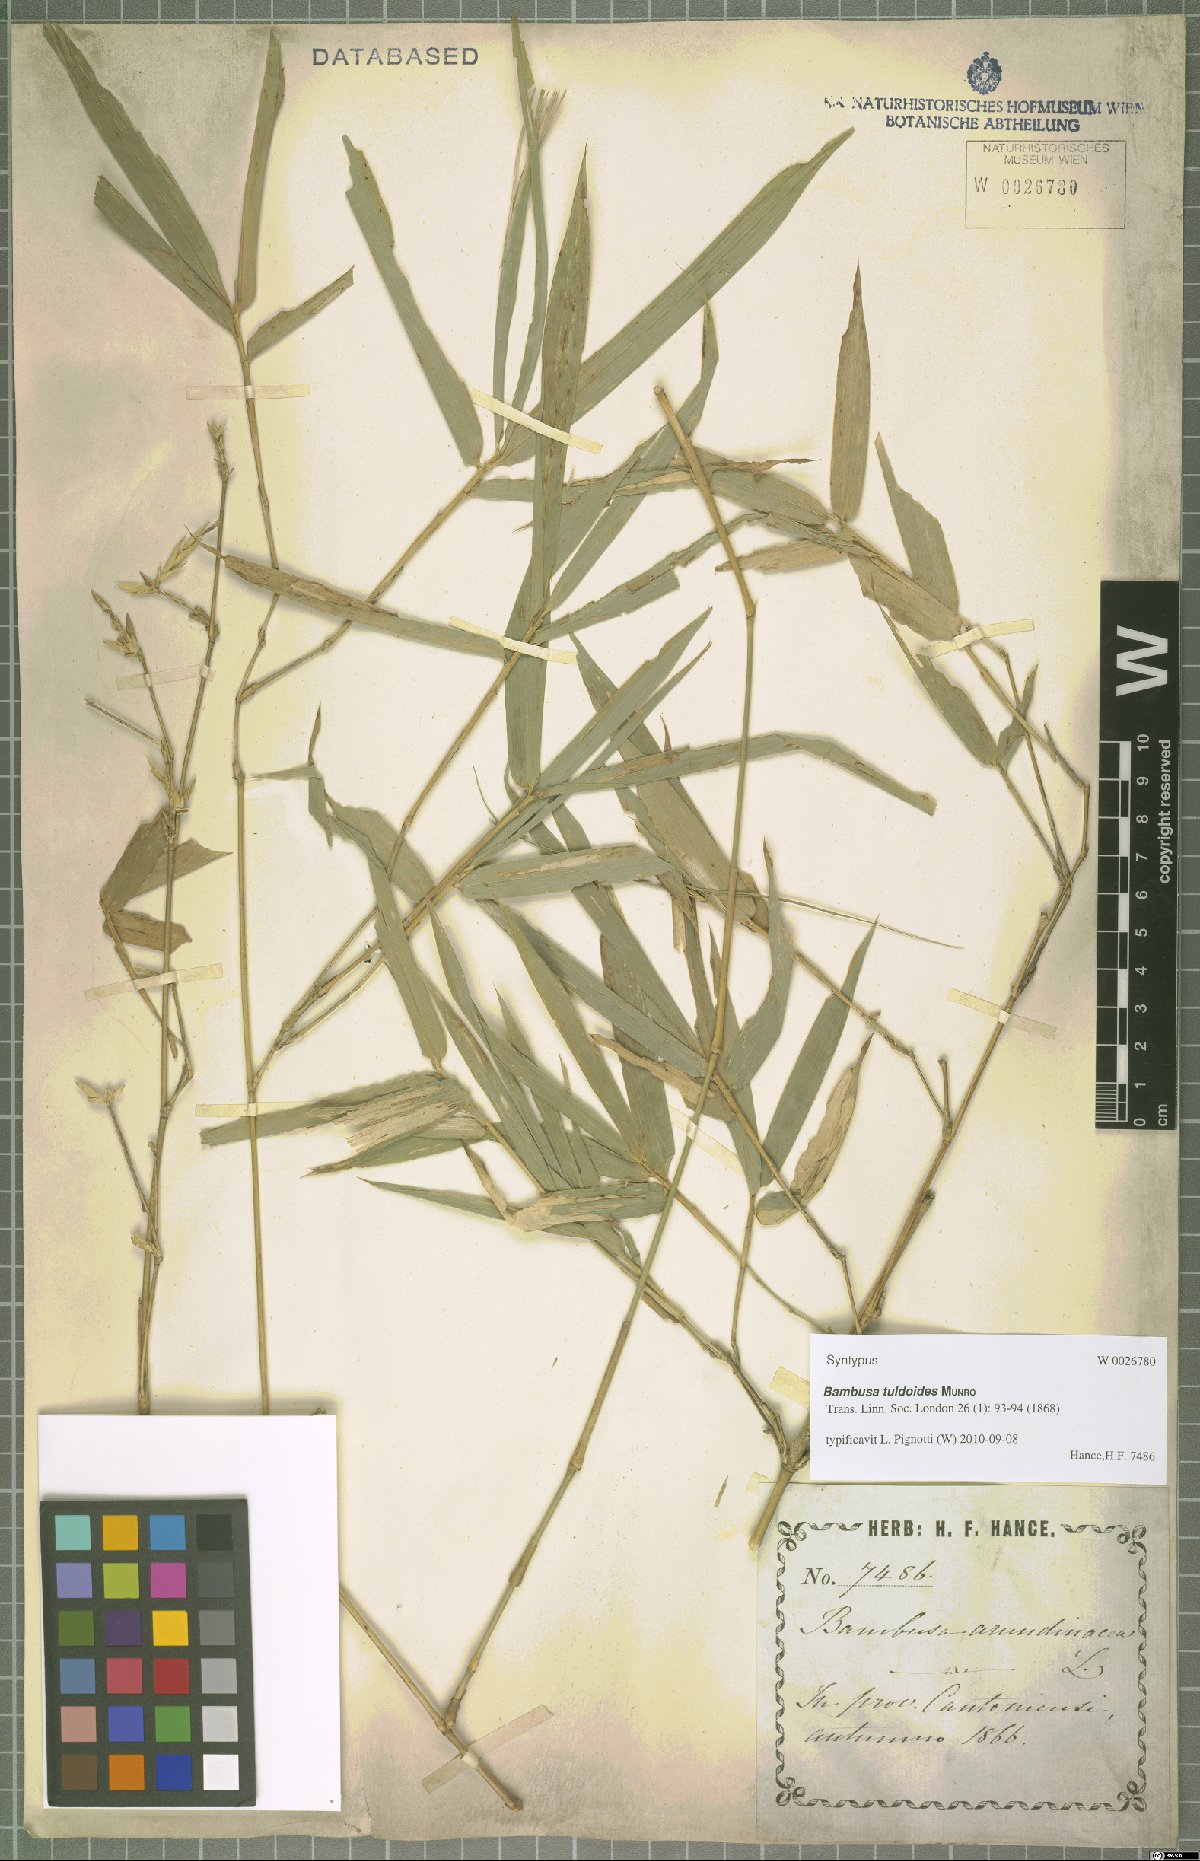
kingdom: Plantae
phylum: Tracheophyta
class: Liliopsida
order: Poales
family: Poaceae
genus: Bambusa
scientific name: Bambusa tuldoides
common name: Verdant bamboo
